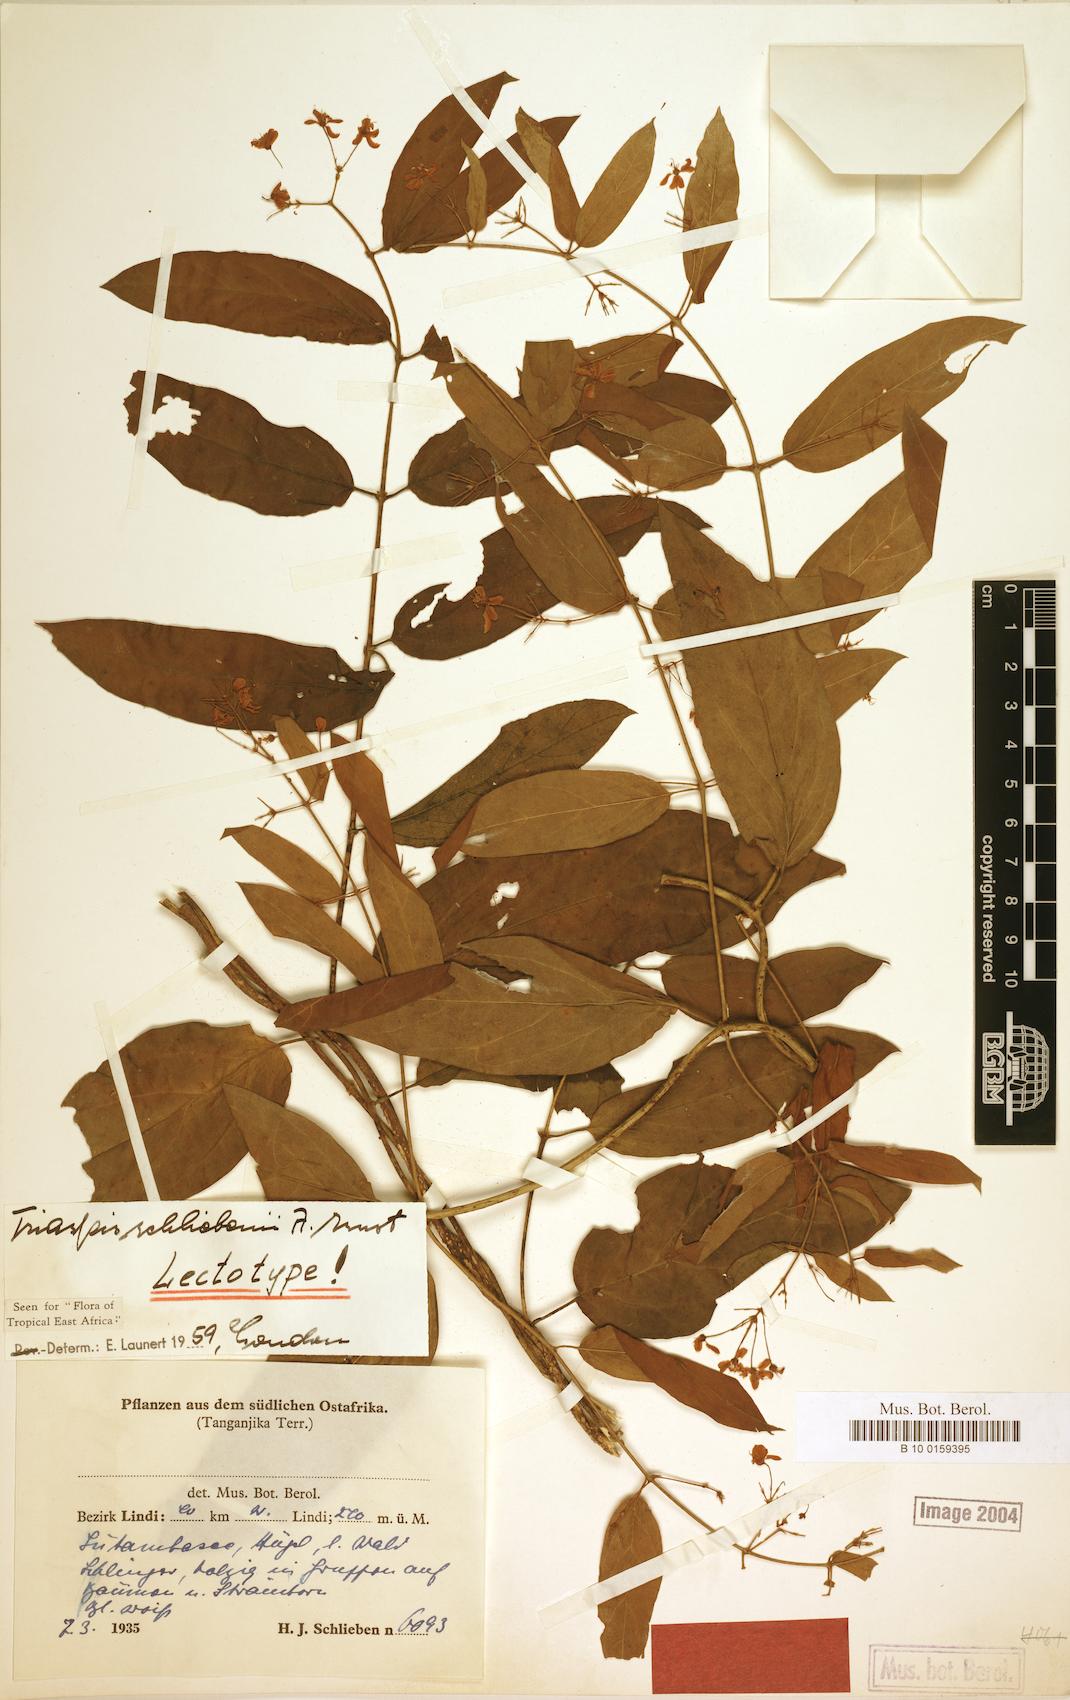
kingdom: Plantae
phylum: Tracheophyta
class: Magnoliopsida
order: Malpighiales
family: Malpighiaceae
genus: Triaspis
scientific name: Triaspis schliebenii
